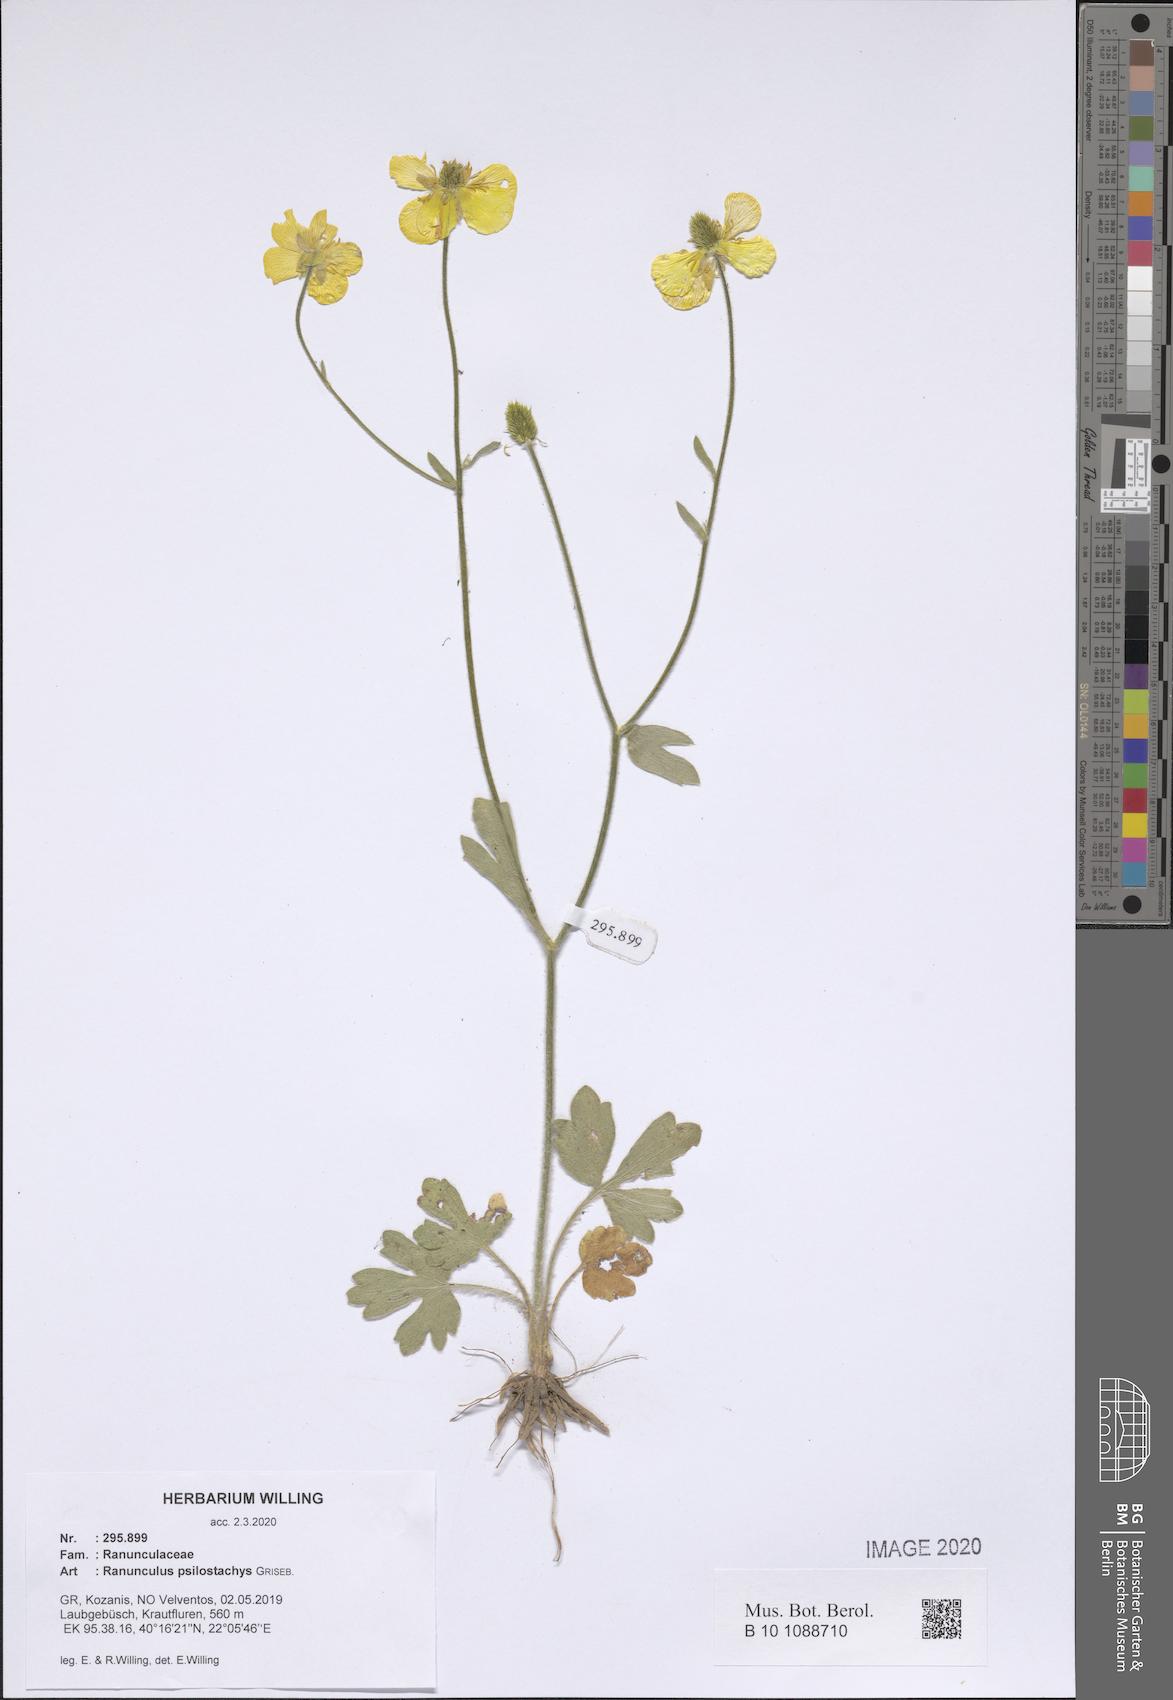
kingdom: Plantae
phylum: Tracheophyta
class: Magnoliopsida
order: Ranunculales
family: Ranunculaceae
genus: Ranunculus
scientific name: Ranunculus psilostachys
